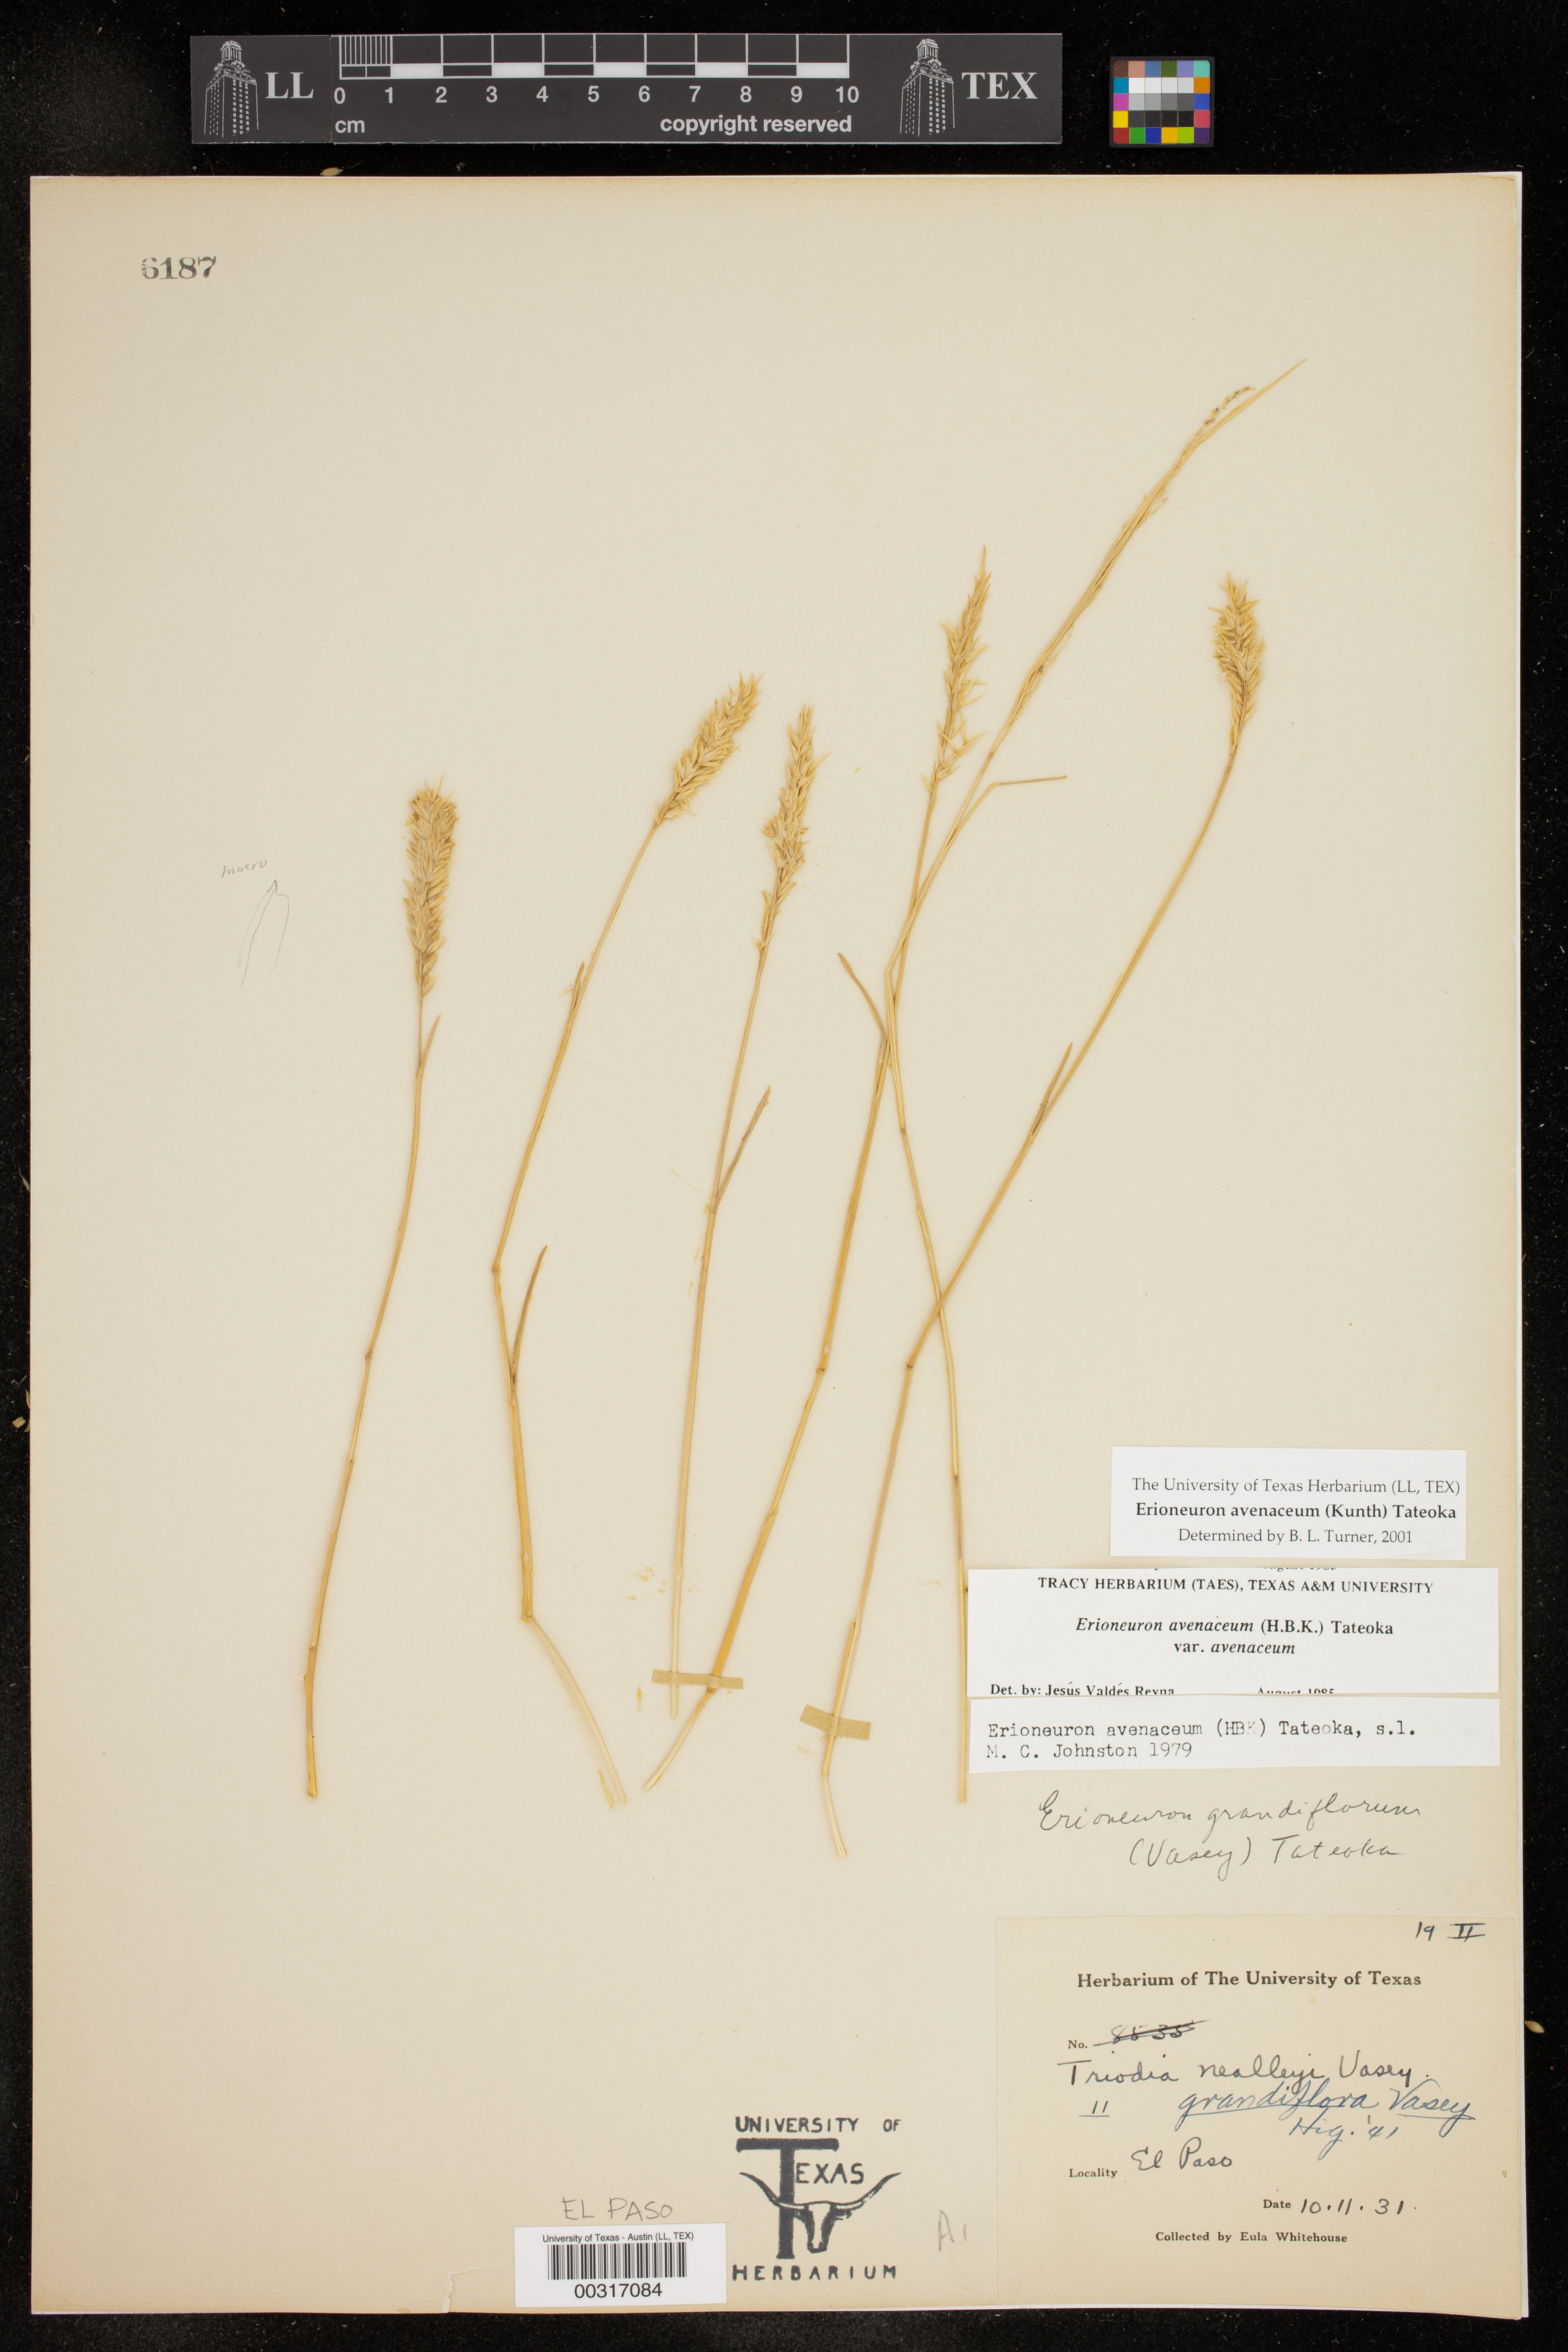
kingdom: Plantae
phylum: Tracheophyta
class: Liliopsida
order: Poales
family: Poaceae
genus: Erioneuron
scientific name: Erioneuron avenaceum
